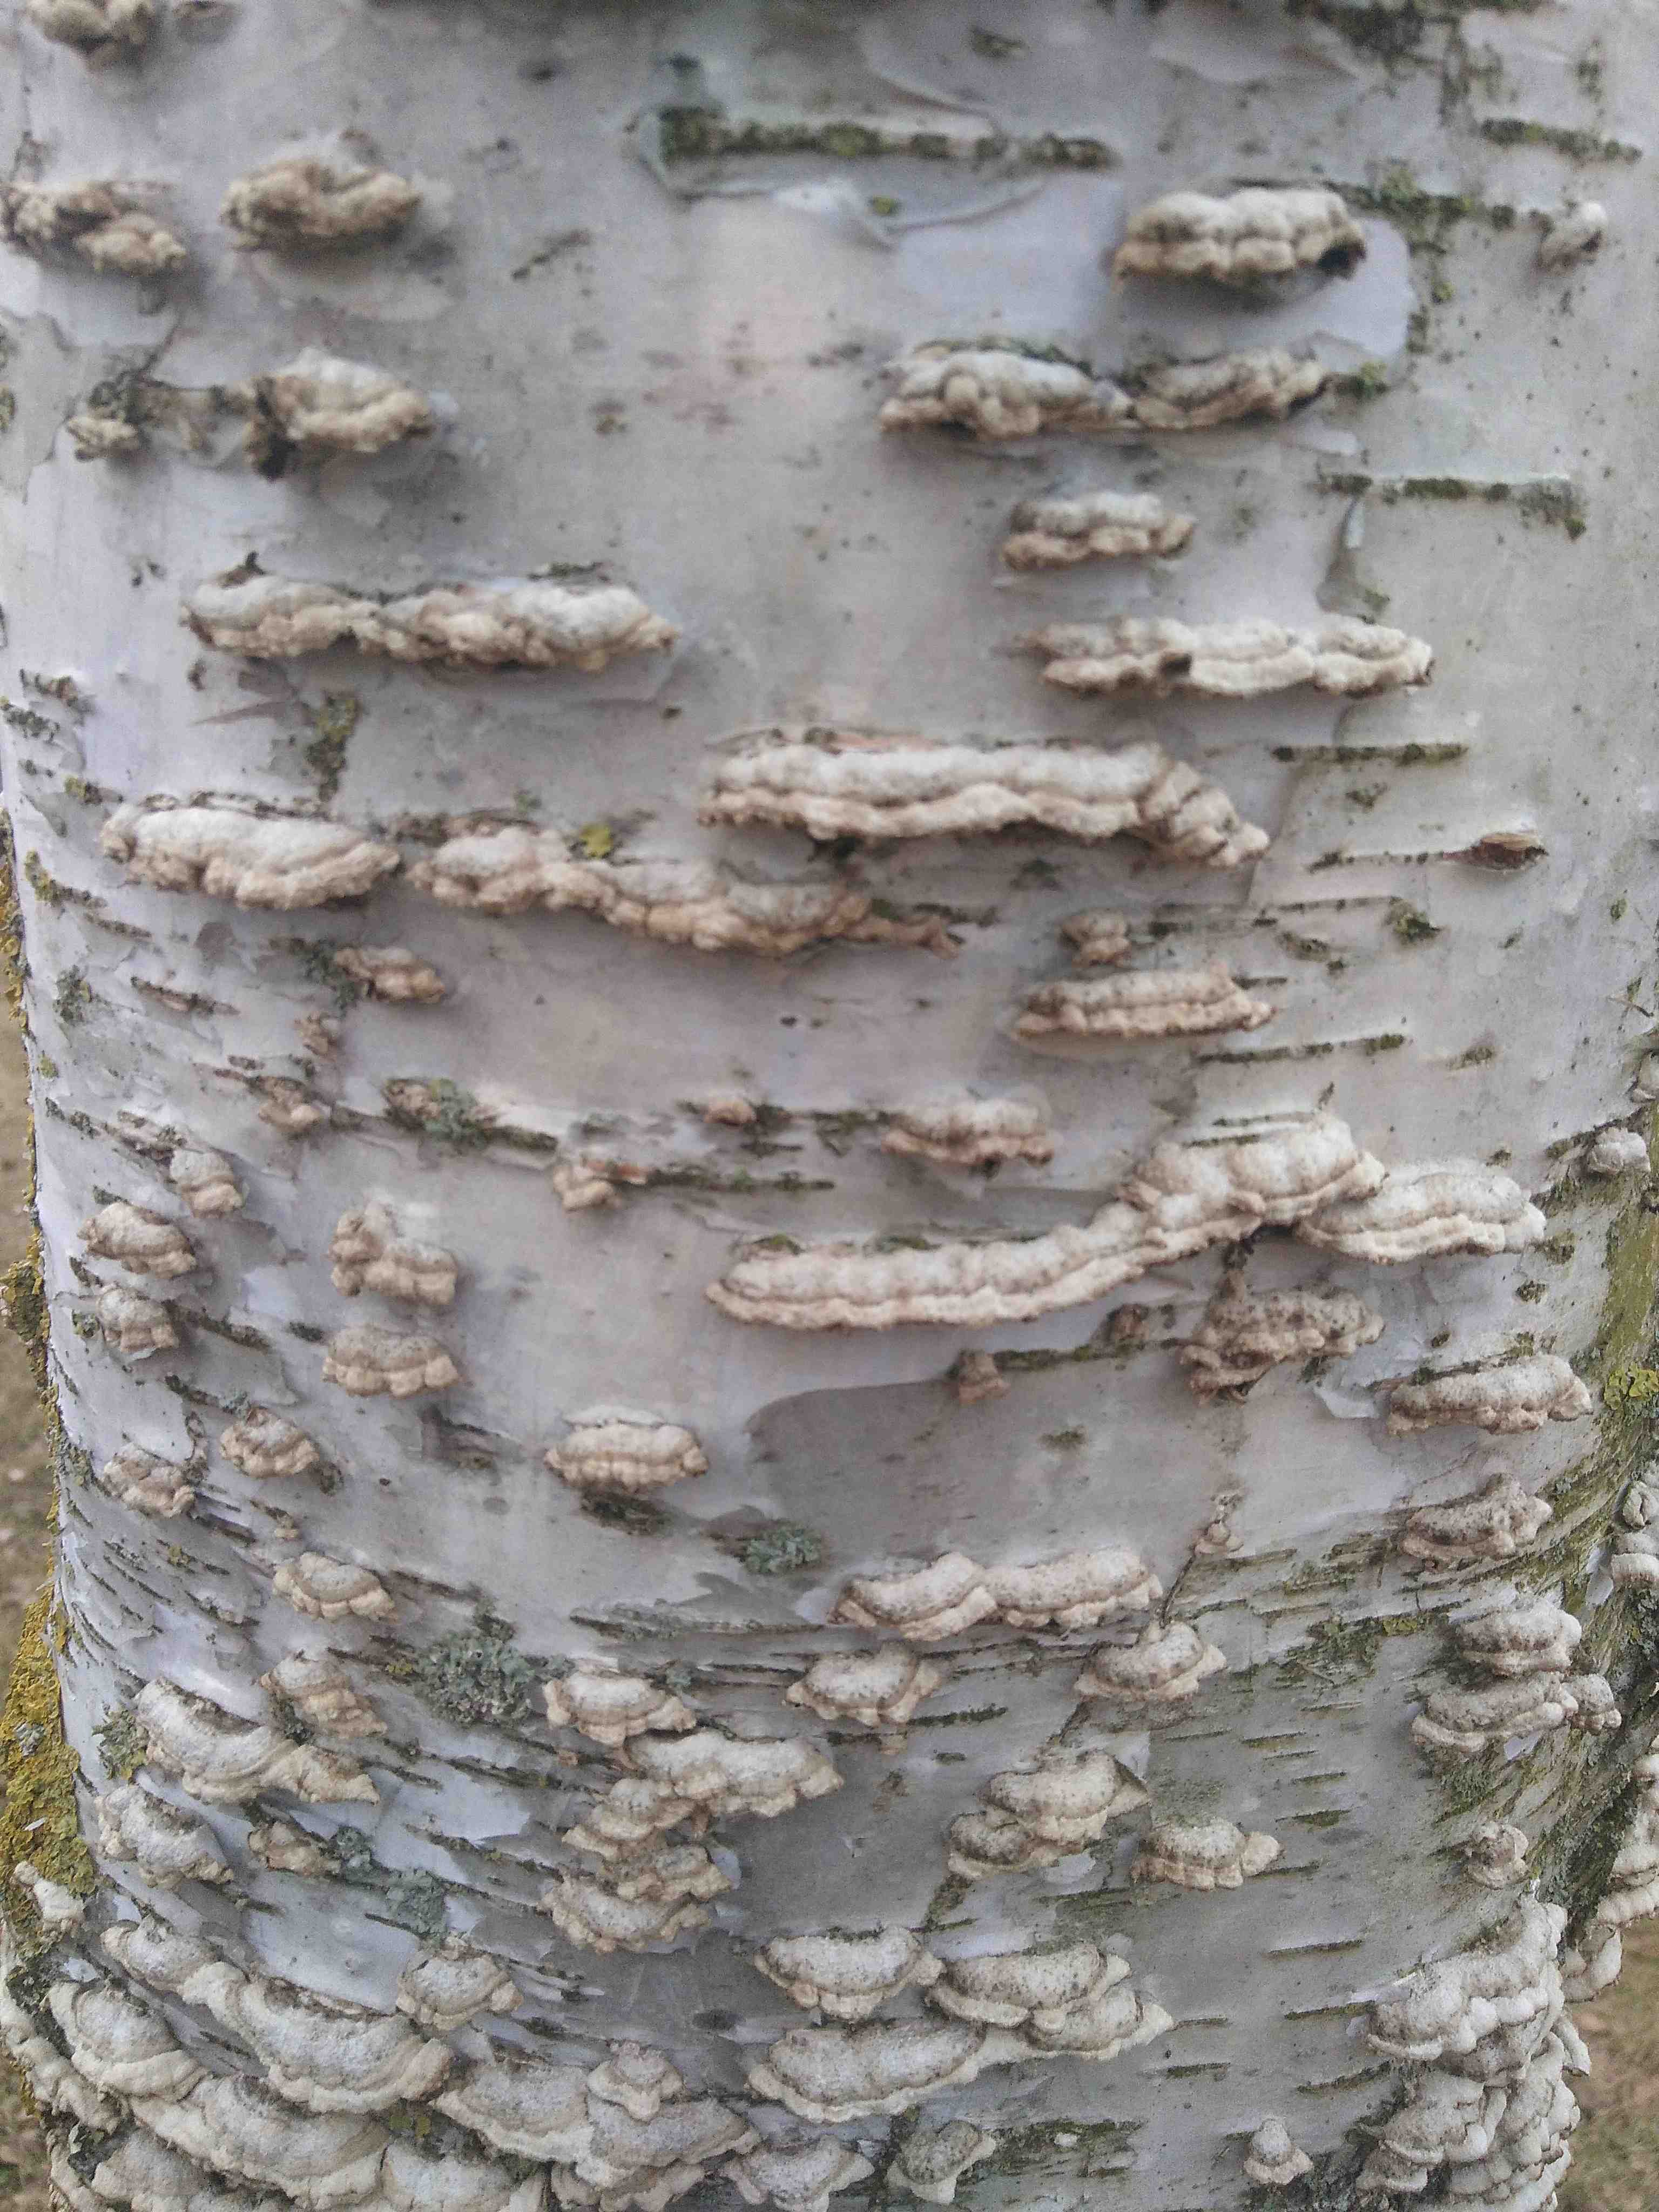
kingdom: Fungi
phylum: Basidiomycota
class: Agaricomycetes
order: Agaricales
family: Cyphellaceae
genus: Chondrostereum
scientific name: Chondrostereum purpureum
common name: purpurlædersvamp
